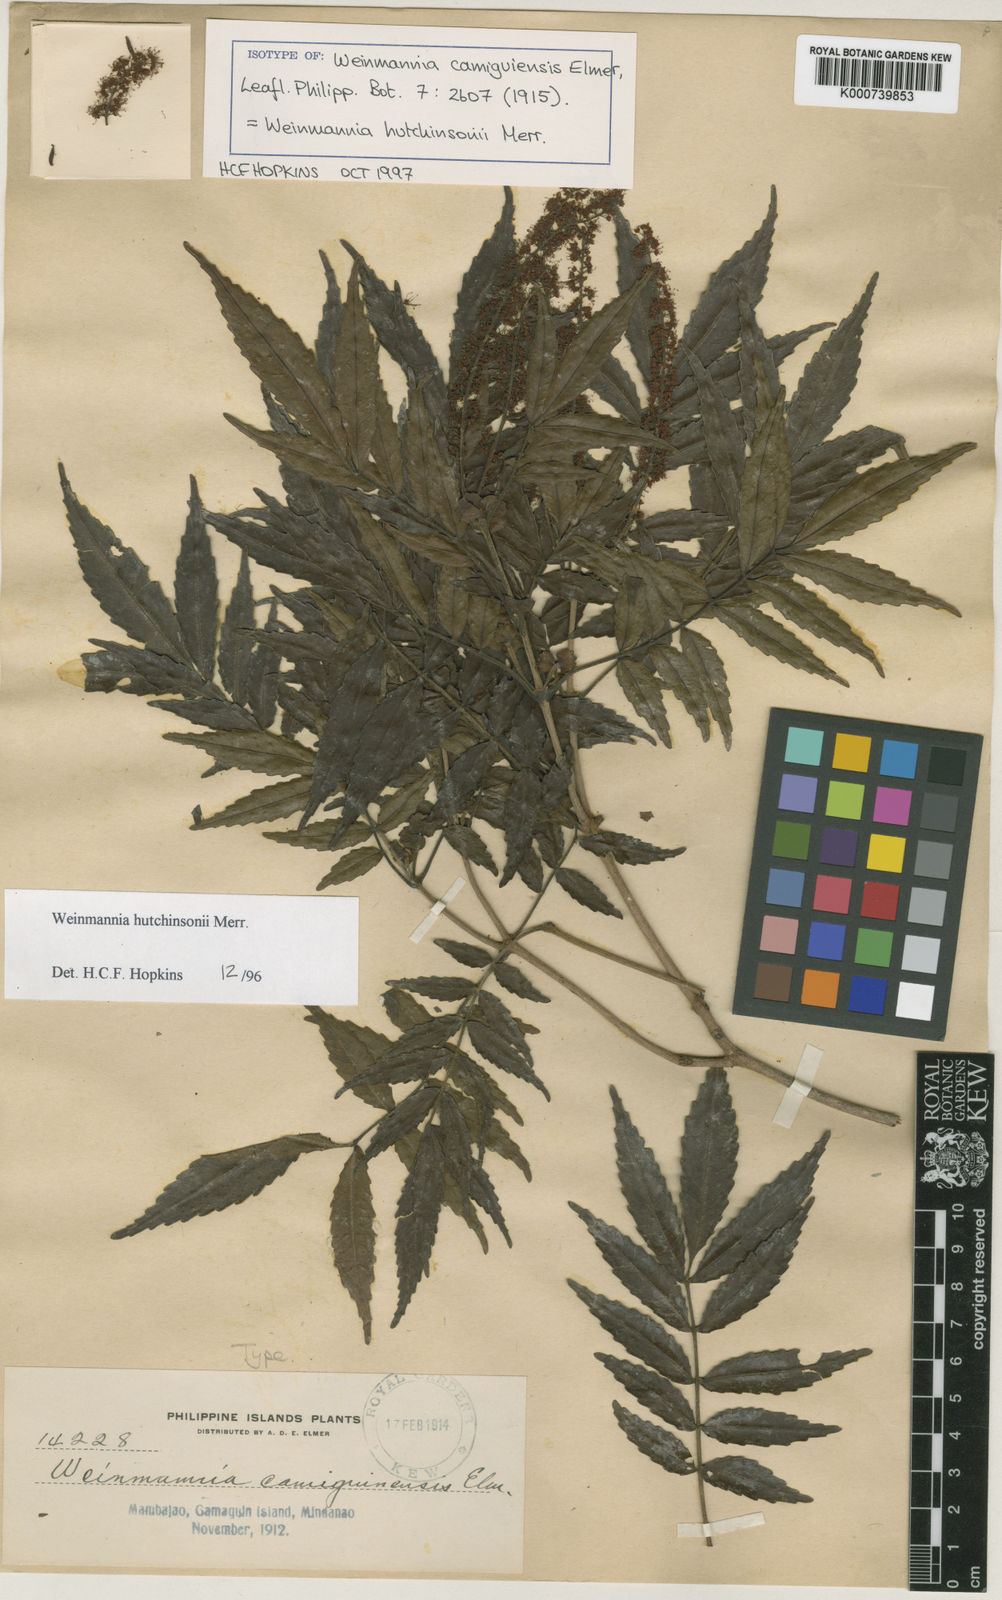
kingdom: Plantae
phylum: Tracheophyta
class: Magnoliopsida
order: Oxalidales
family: Cunoniaceae
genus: Pterophylla
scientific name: Pterophylla hutchinsonii
